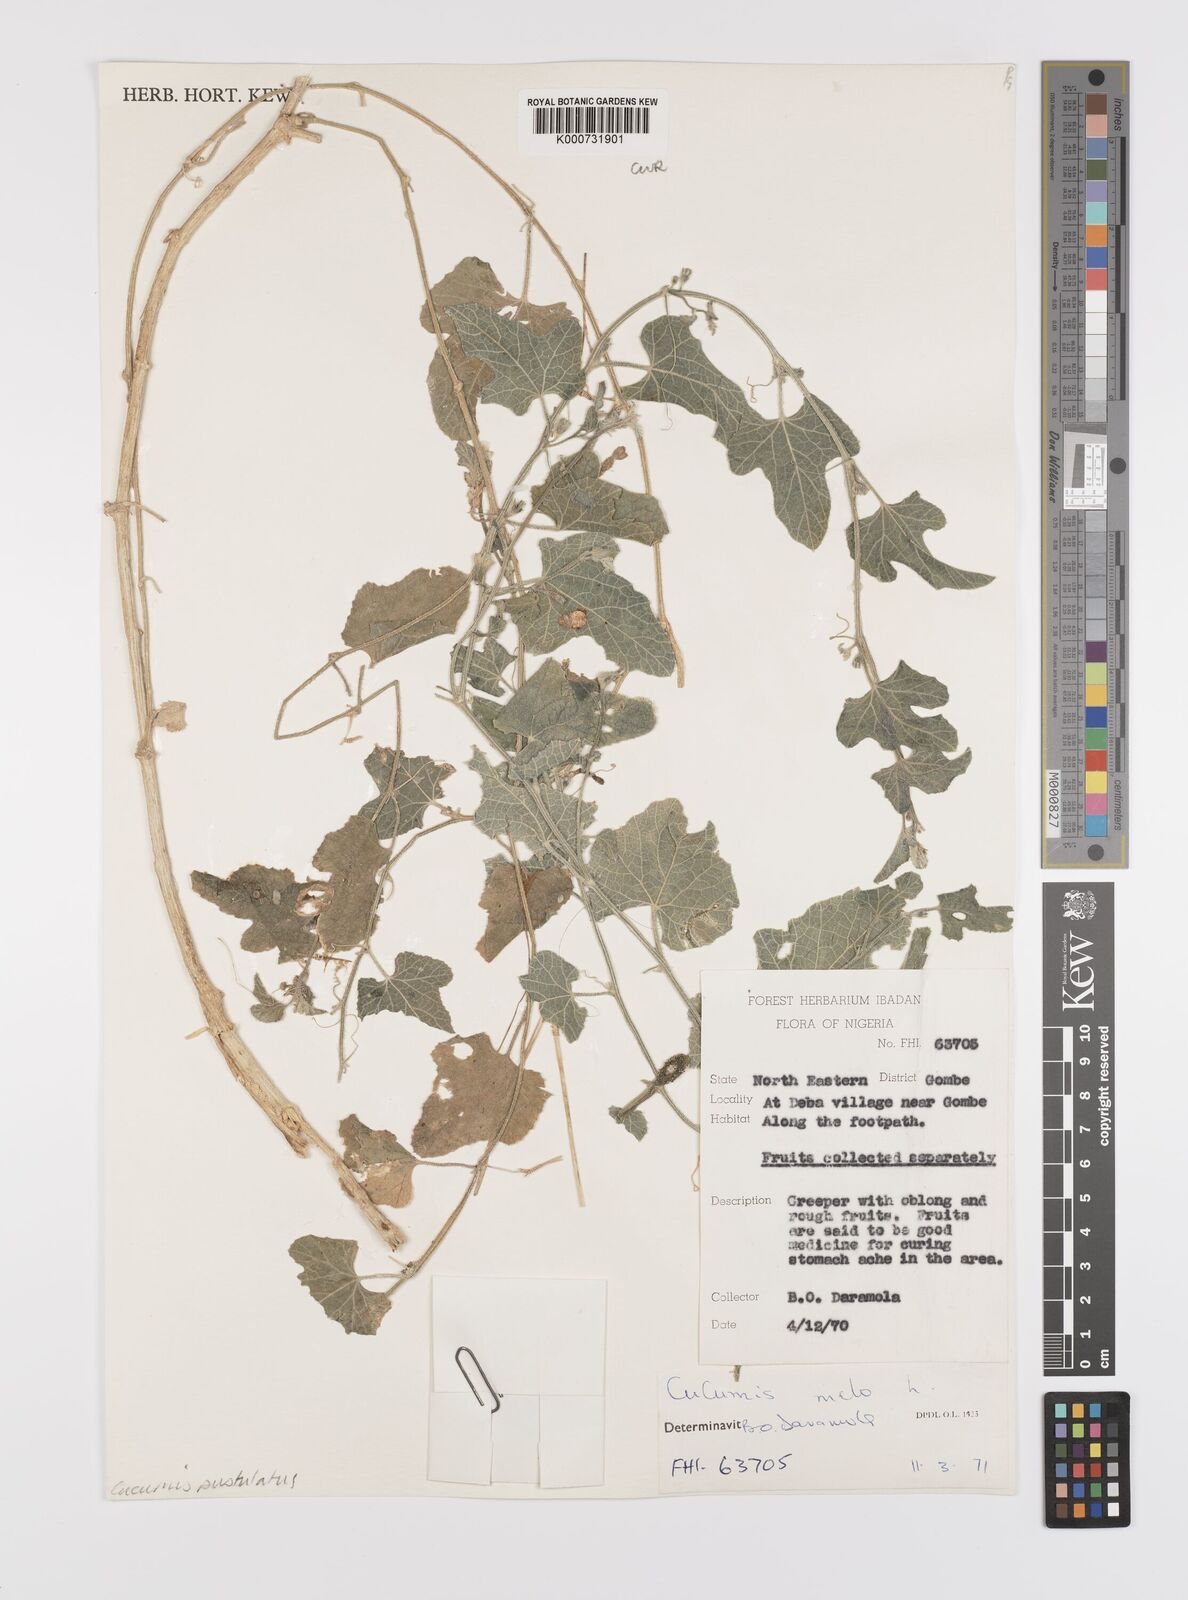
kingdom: Plantae
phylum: Tracheophyta
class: Magnoliopsida
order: Cucurbitales
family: Cucurbitaceae
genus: Cucumis
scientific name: Cucumis melo
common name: Melon
